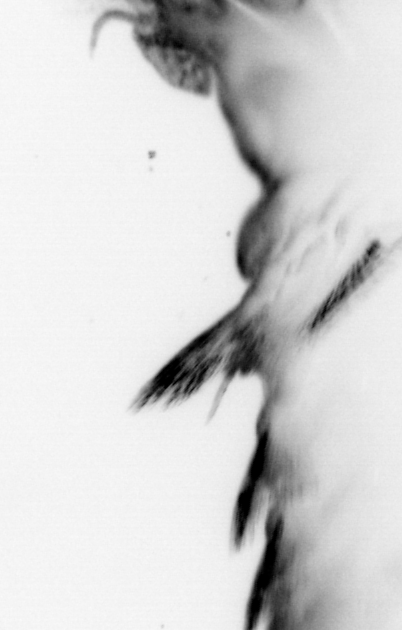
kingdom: Animalia
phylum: Annelida
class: Polychaeta
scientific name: Polychaeta
